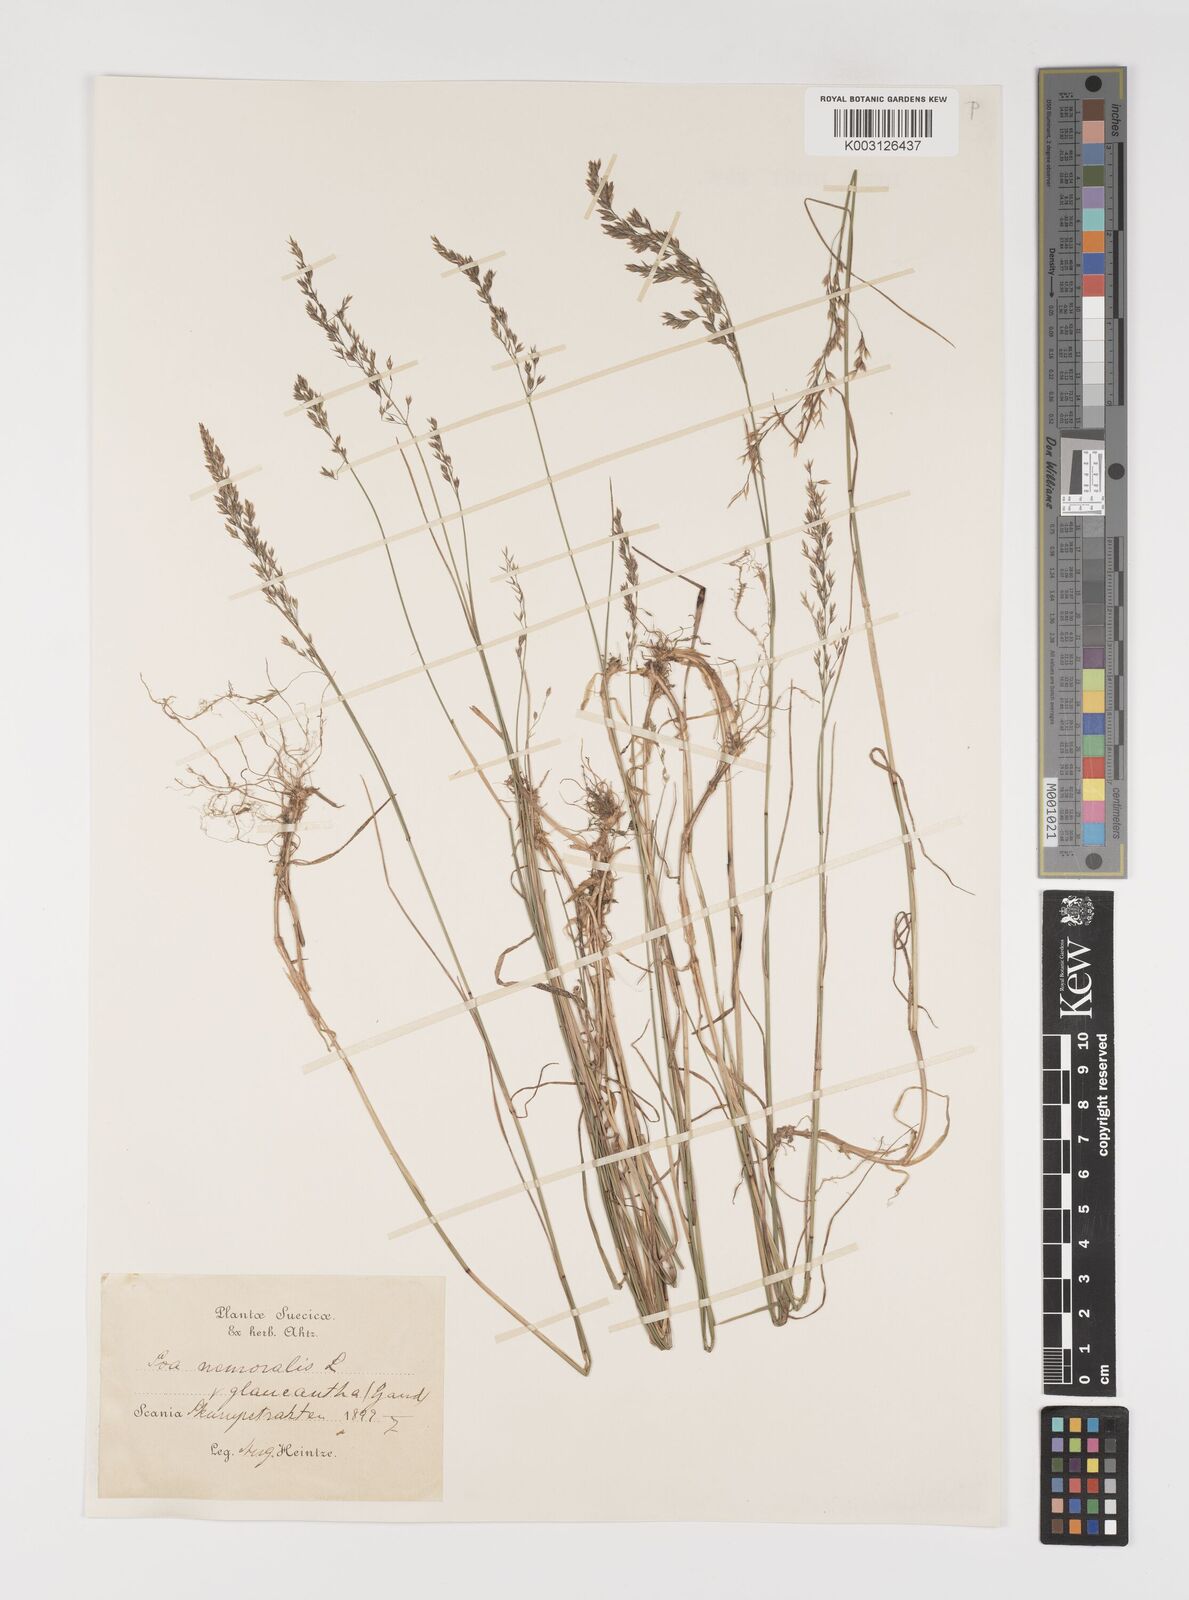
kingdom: Plantae
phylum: Tracheophyta
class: Liliopsida
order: Poales
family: Poaceae
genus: Poa
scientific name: Poa nemoralis
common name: Wood bluegrass
